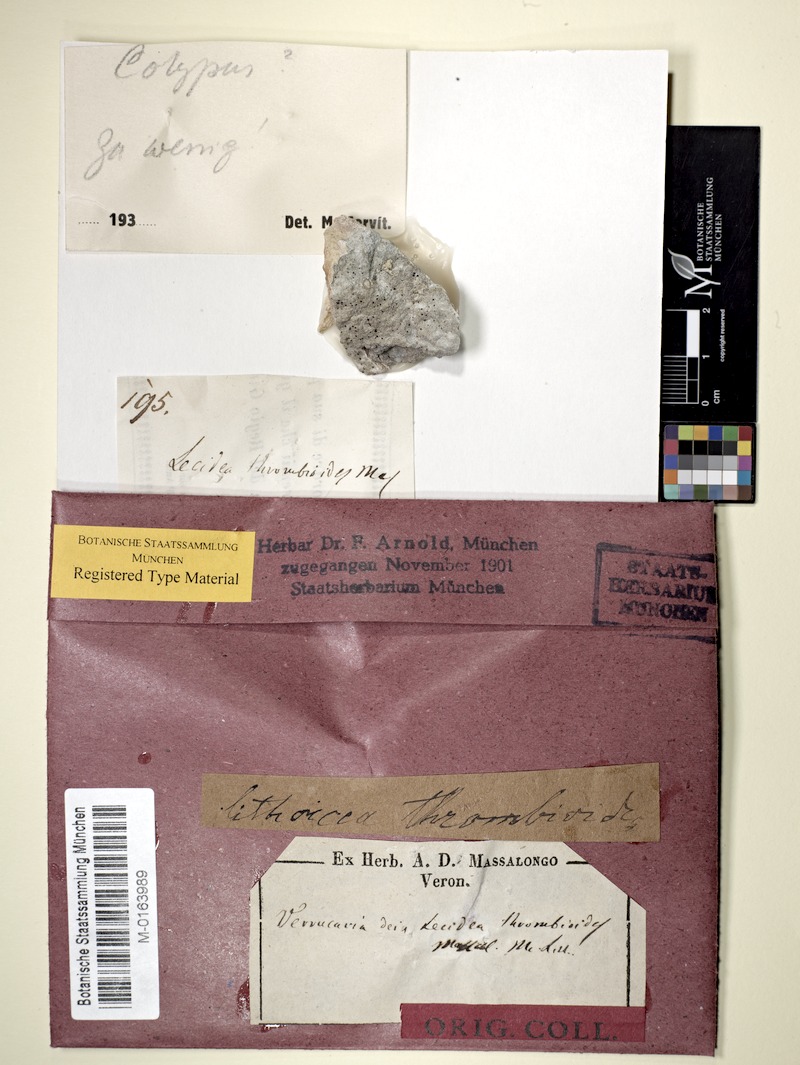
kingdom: Fungi
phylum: Ascomycota
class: Eurotiomycetes
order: Verrucariales
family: Verrucariaceae
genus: Verrucaria
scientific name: Verrucaria macrostoma
